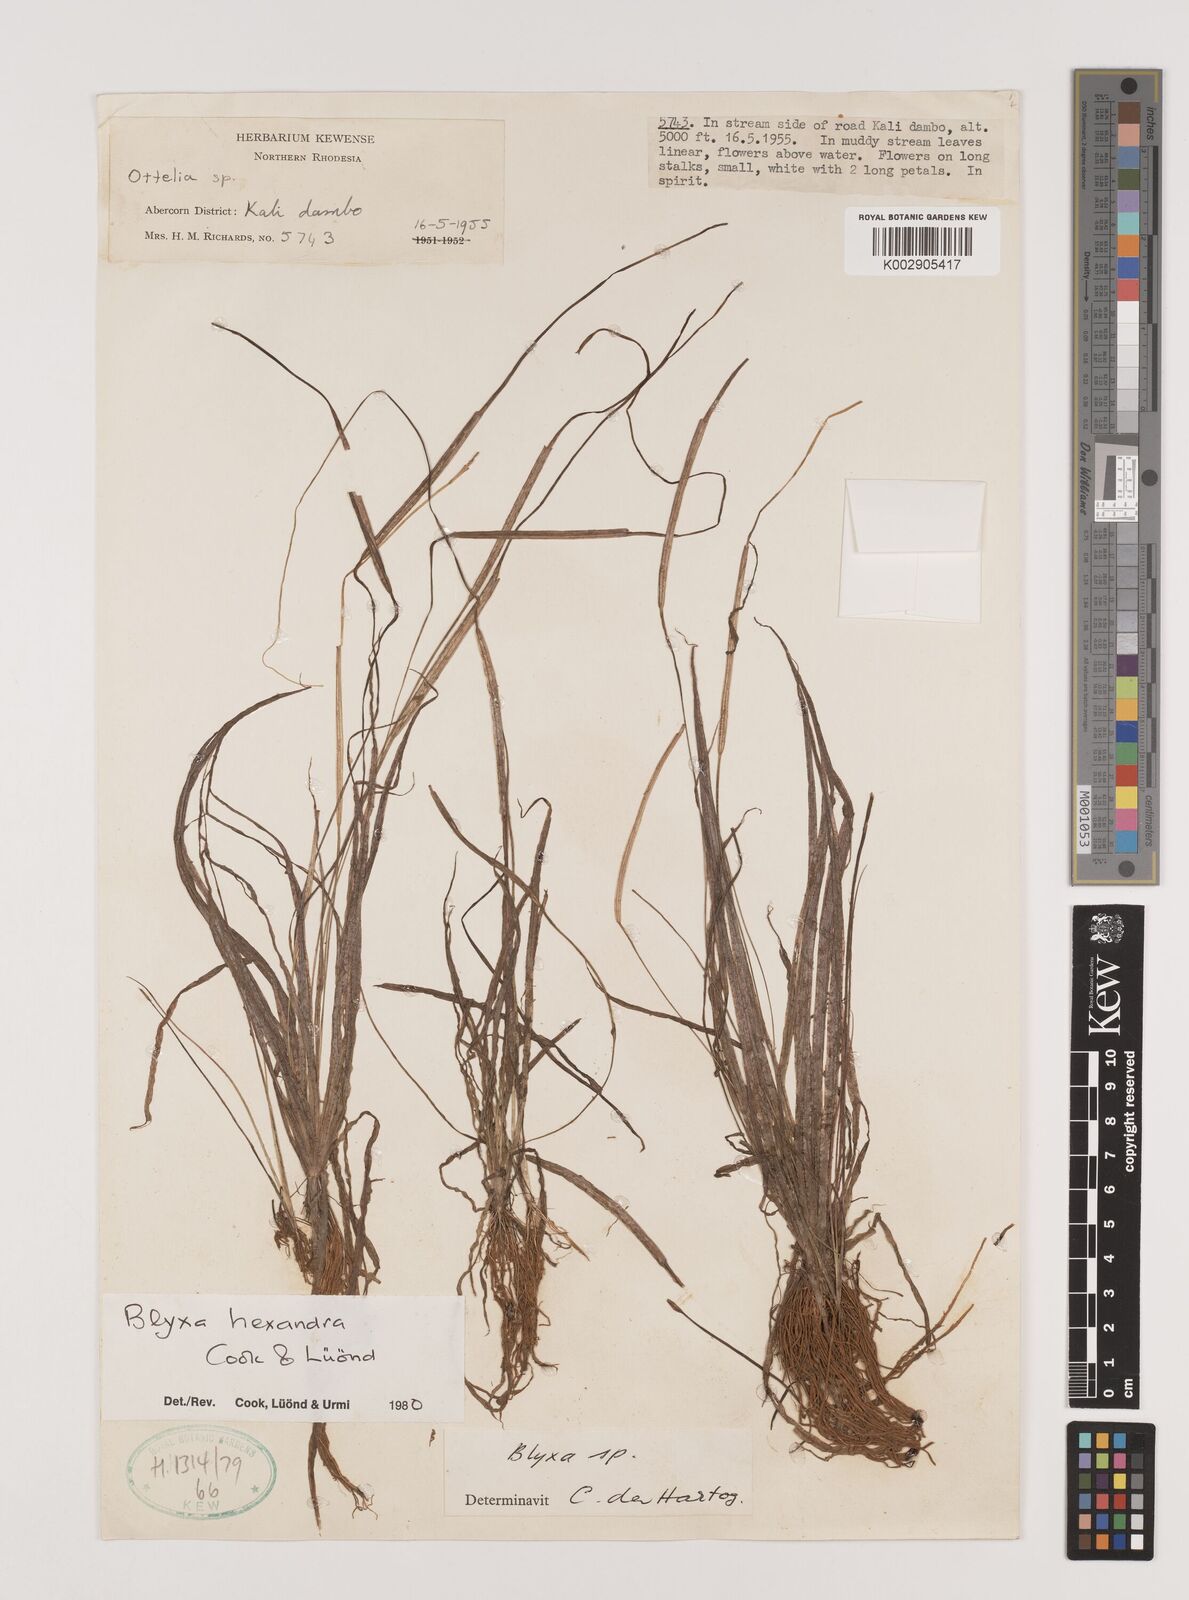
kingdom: Plantae
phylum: Tracheophyta
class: Liliopsida
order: Alismatales
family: Hydrocharitaceae
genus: Blyxa
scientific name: Blyxa hexandra
